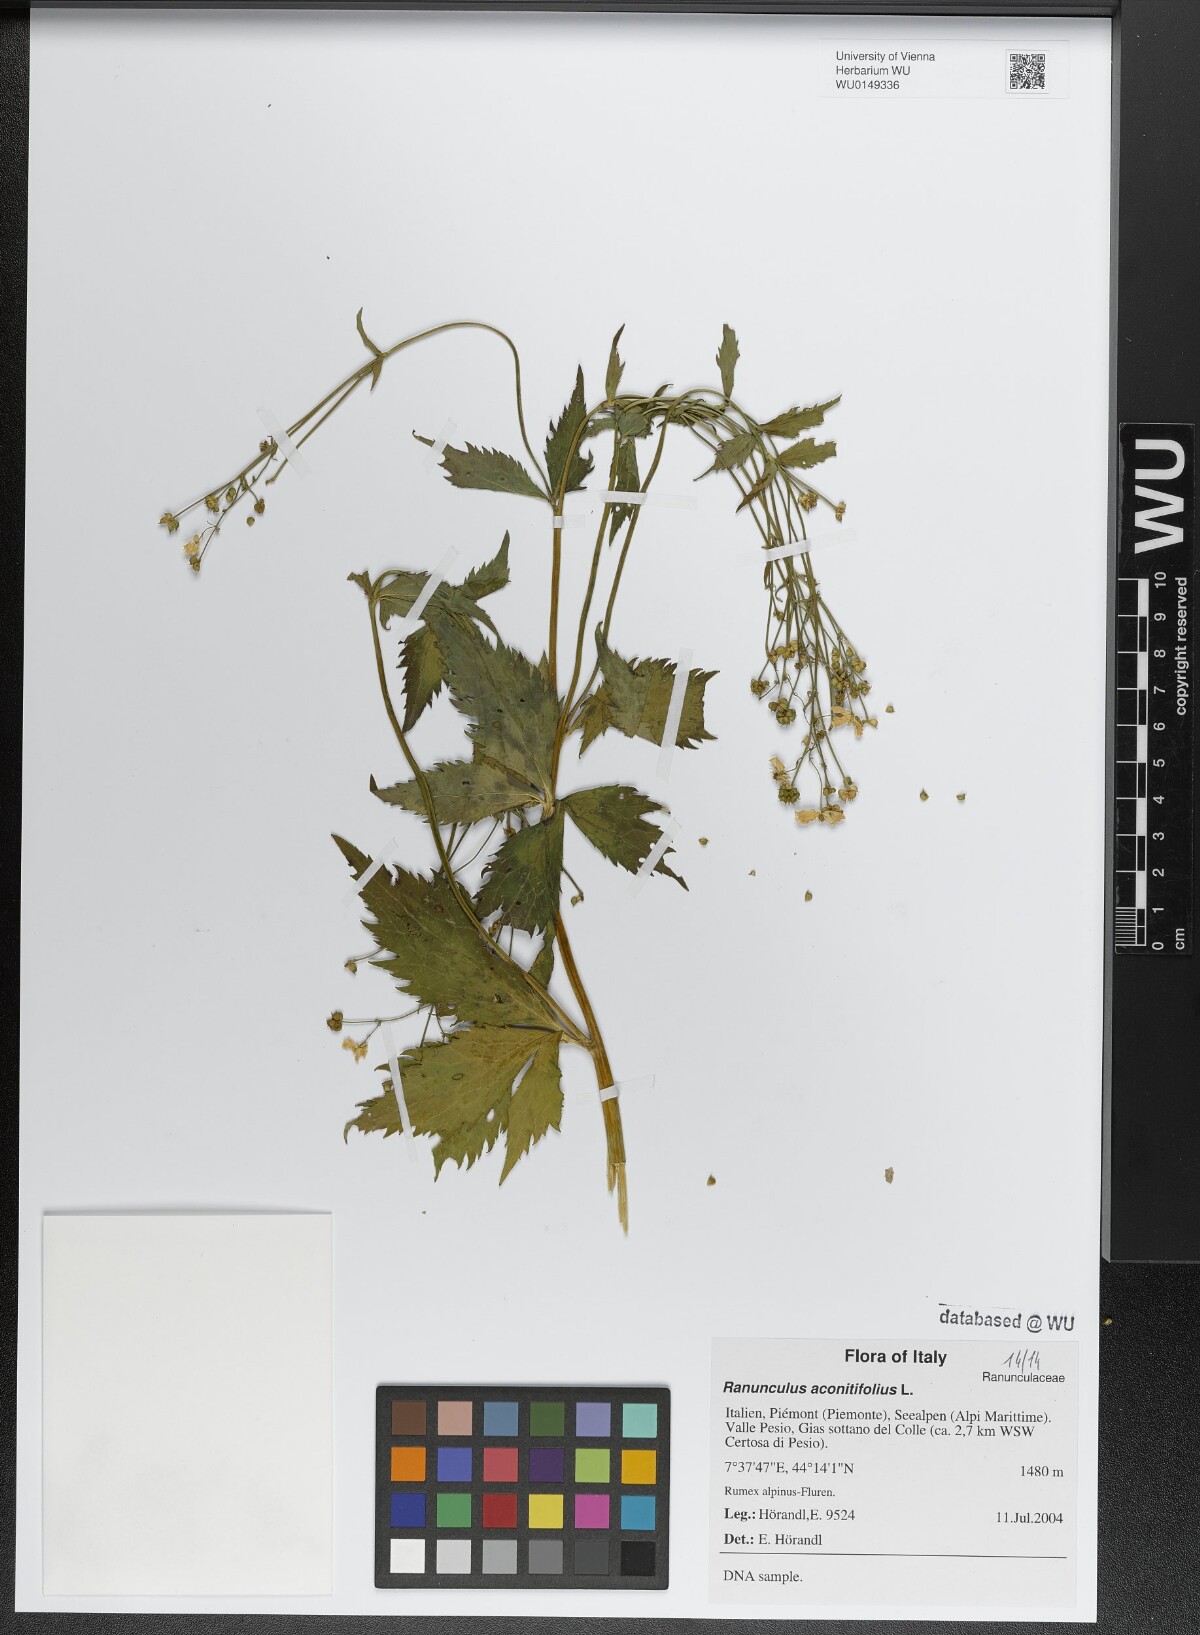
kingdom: Plantae
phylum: Tracheophyta
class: Magnoliopsida
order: Ranunculales
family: Ranunculaceae
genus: Ranunculus
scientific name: Ranunculus aconitifolius
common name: Aconite-leaved buttercup
